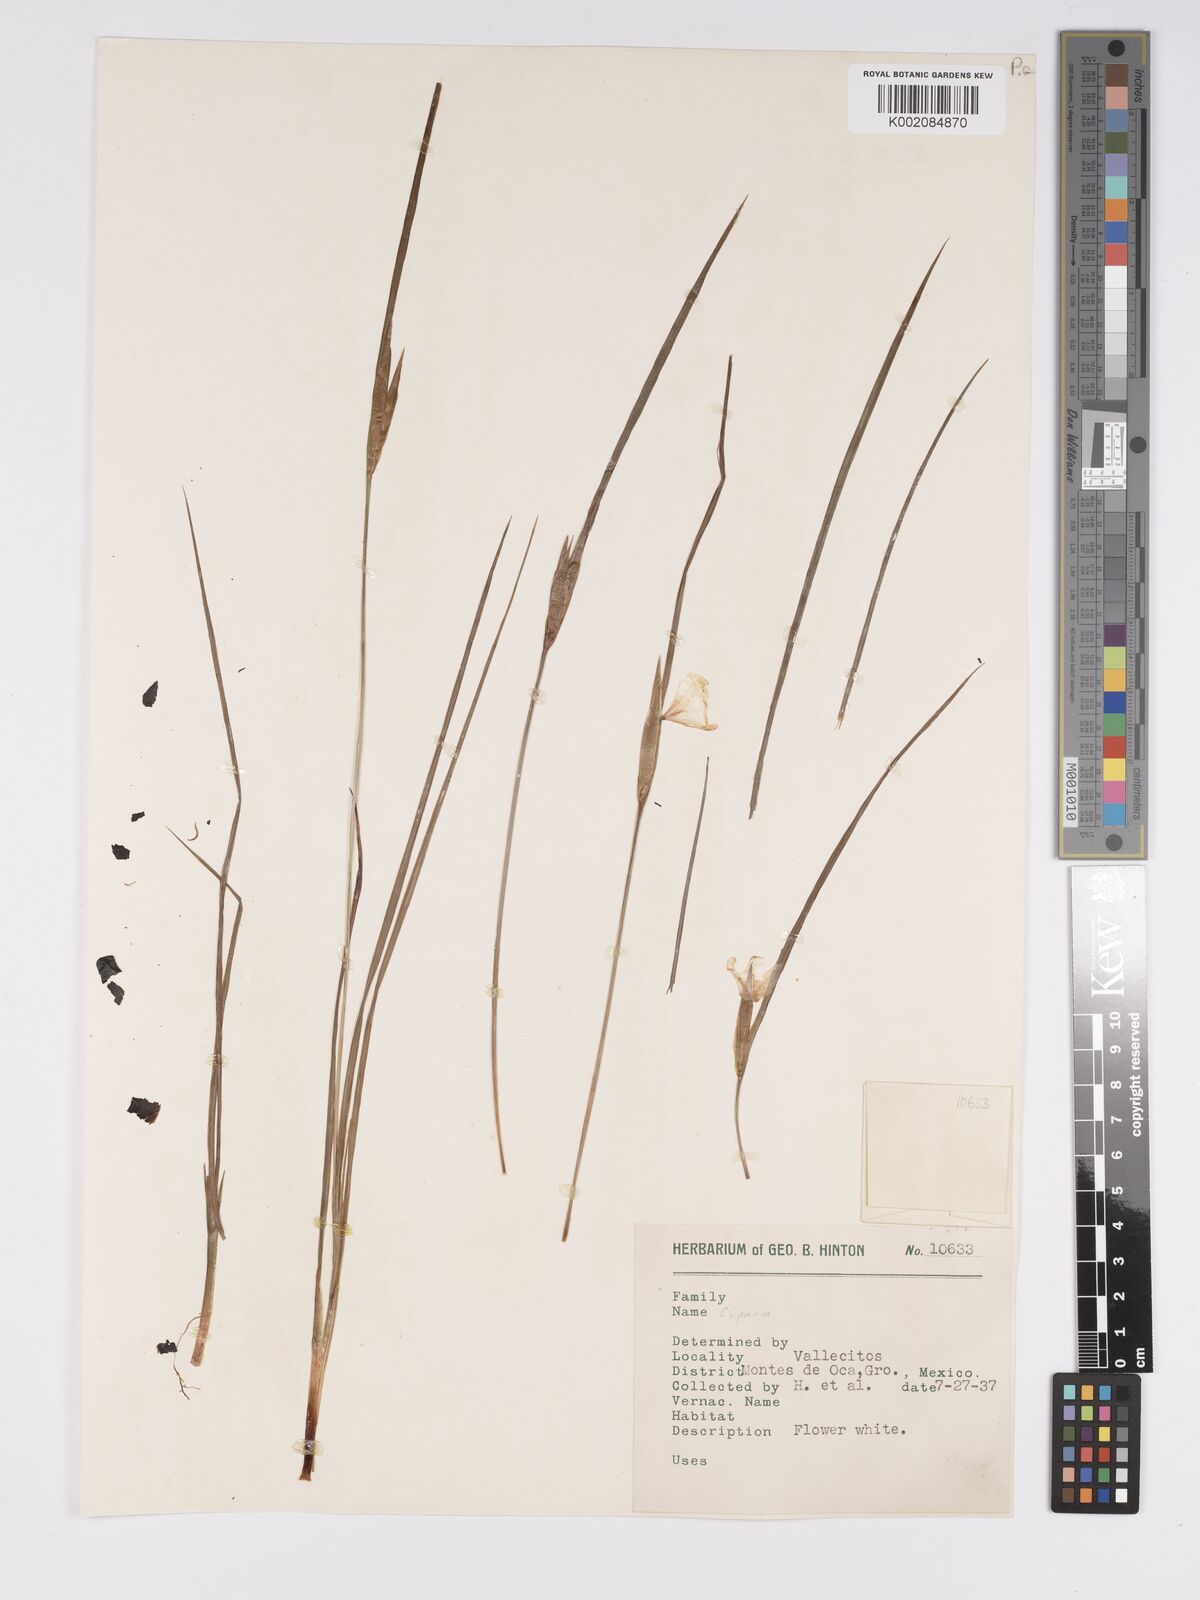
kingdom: Plantae
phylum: Tracheophyta
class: Liliopsida
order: Asparagales
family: Iridaceae
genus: Cipura
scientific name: Cipura
